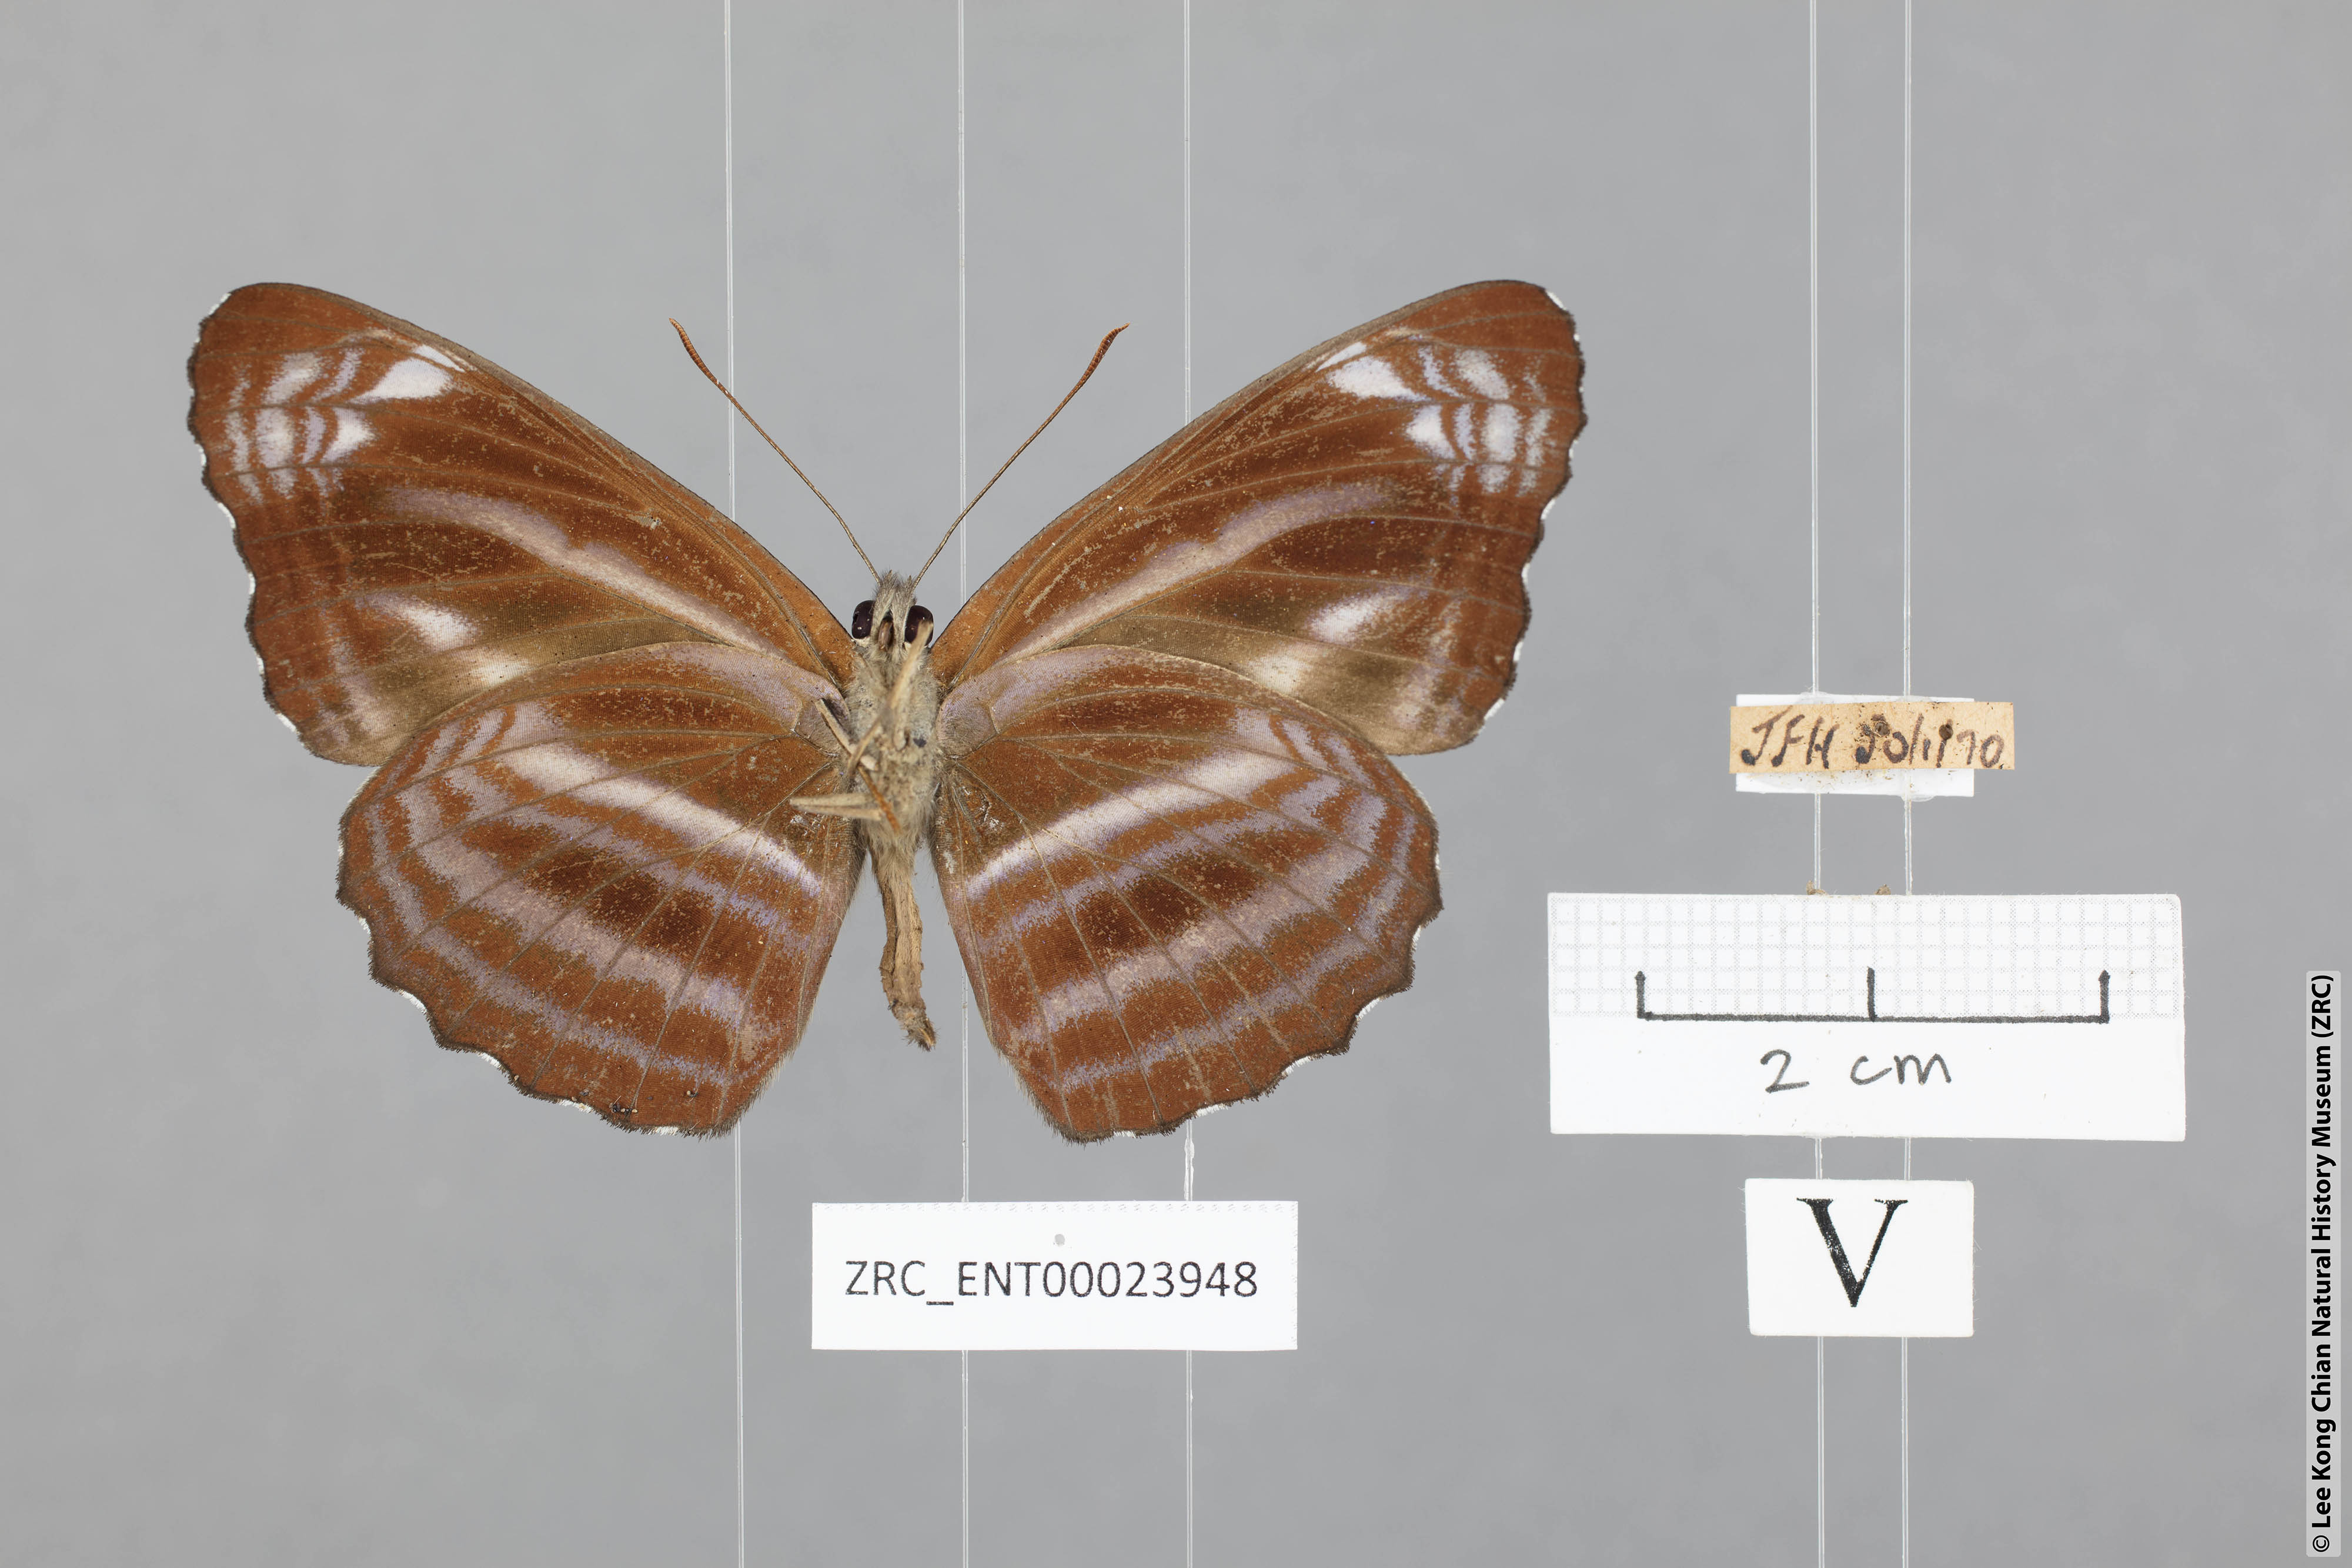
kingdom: Animalia
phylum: Arthropoda
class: Insecta
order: Lepidoptera
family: Nymphalidae
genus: Neptis
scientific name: Neptis anjana
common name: Rich sailer
